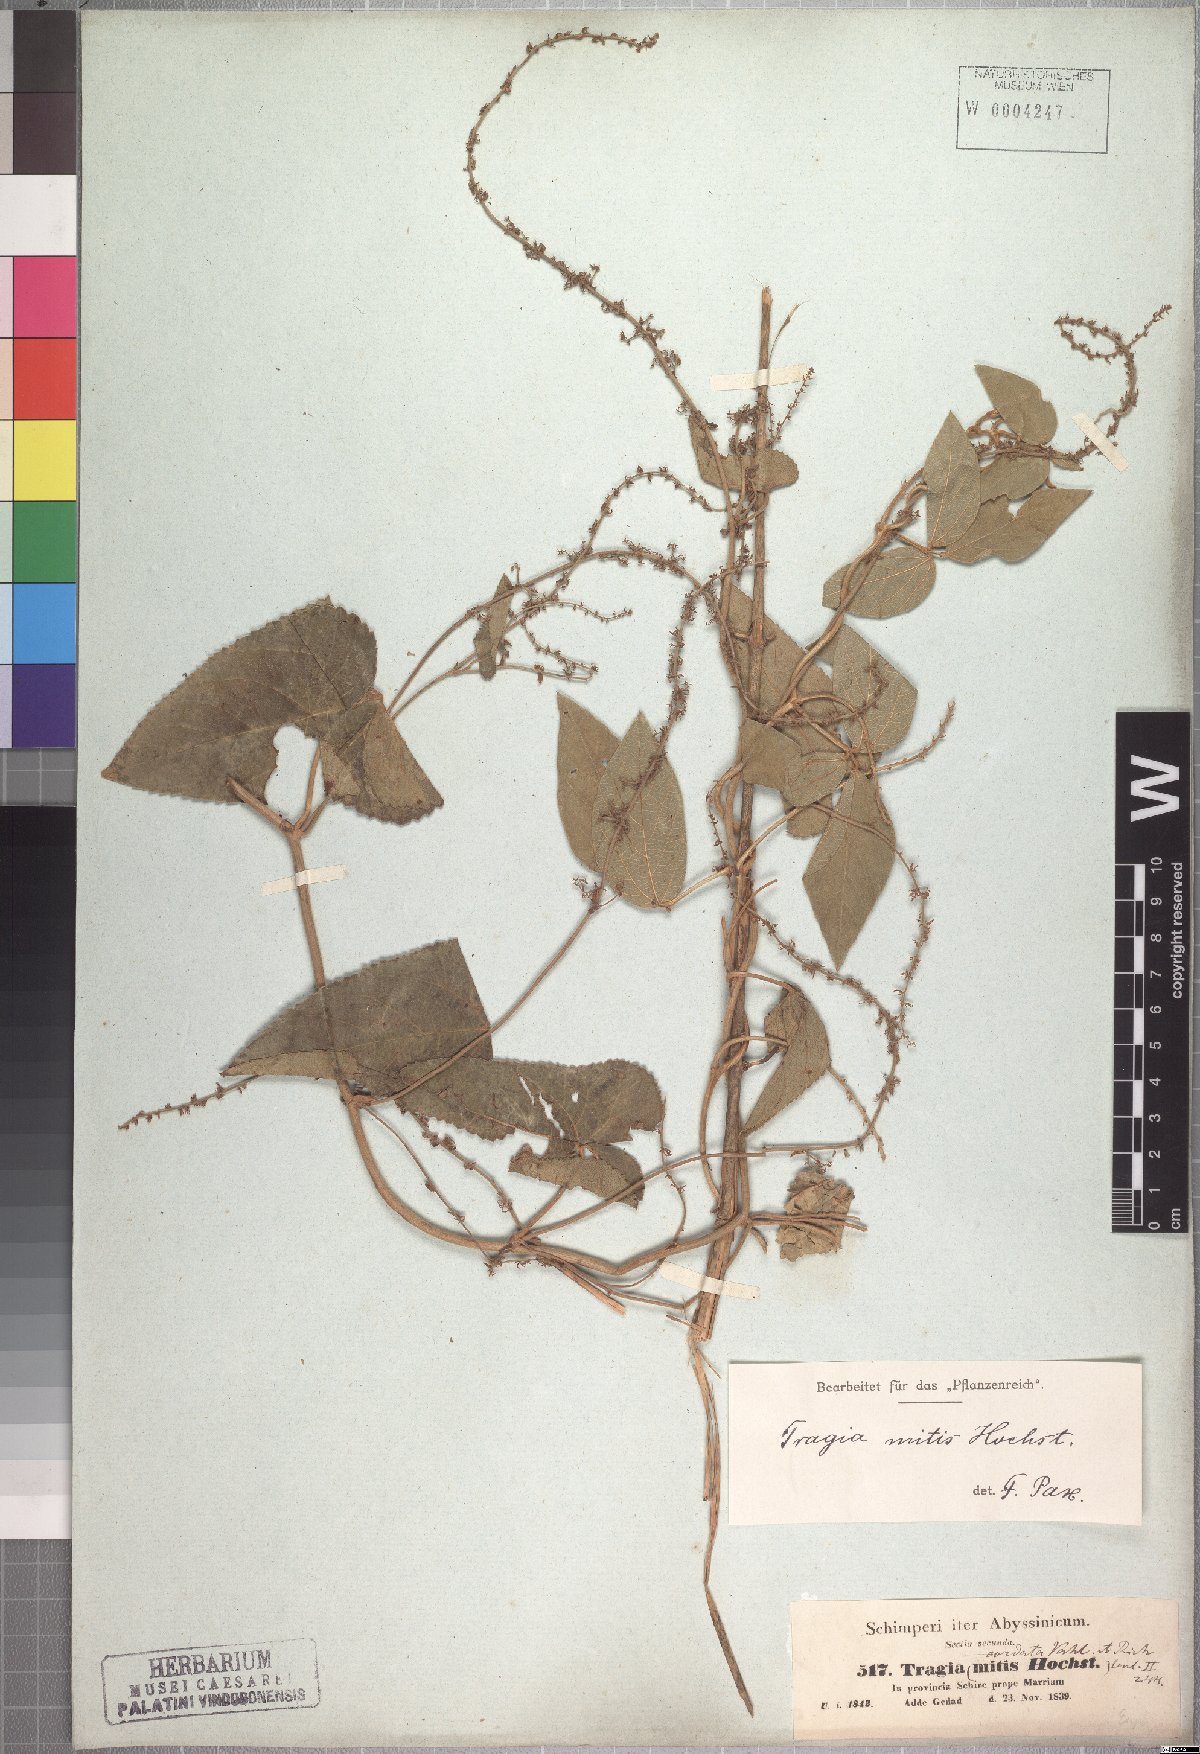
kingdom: Plantae
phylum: Tracheophyta
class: Magnoliopsida
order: Malpighiales
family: Euphorbiaceae
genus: Tragia
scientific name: Tragia mitis
